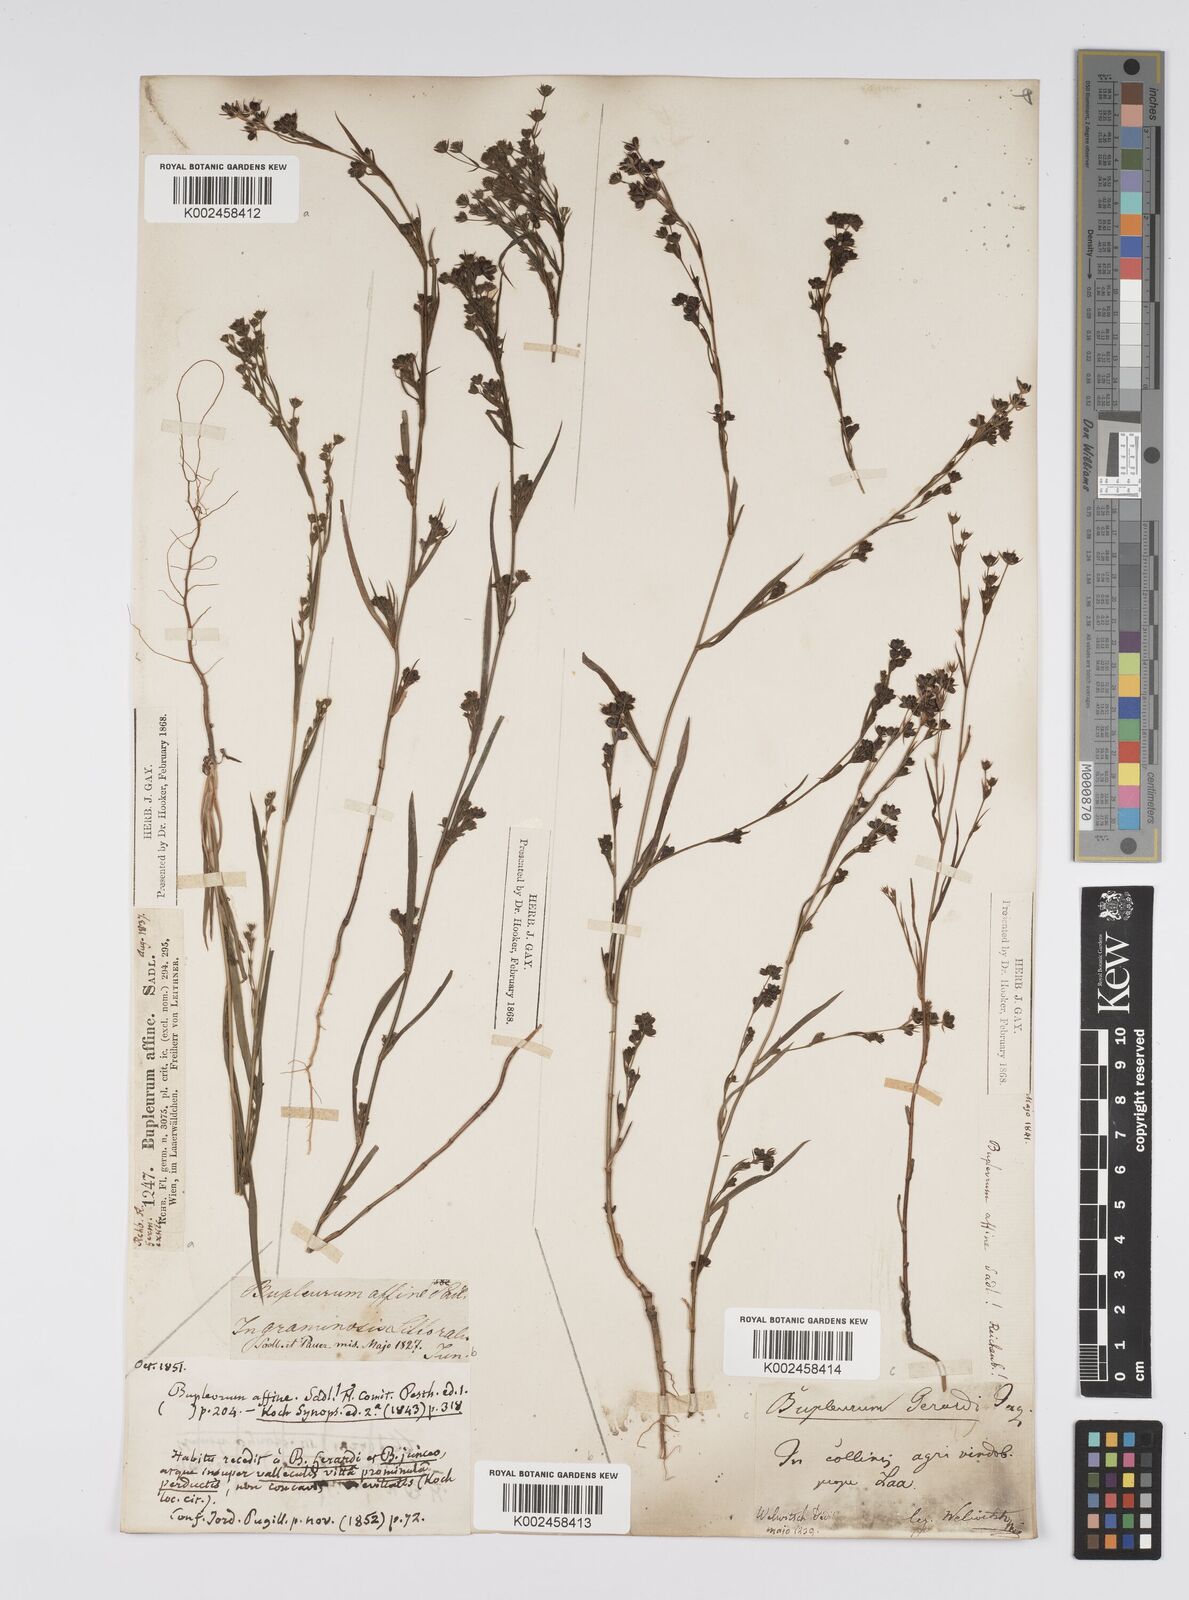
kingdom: Plantae
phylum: Tracheophyta
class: Magnoliopsida
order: Apiales
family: Apiaceae
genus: Bupleurum
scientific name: Bupleurum affine
